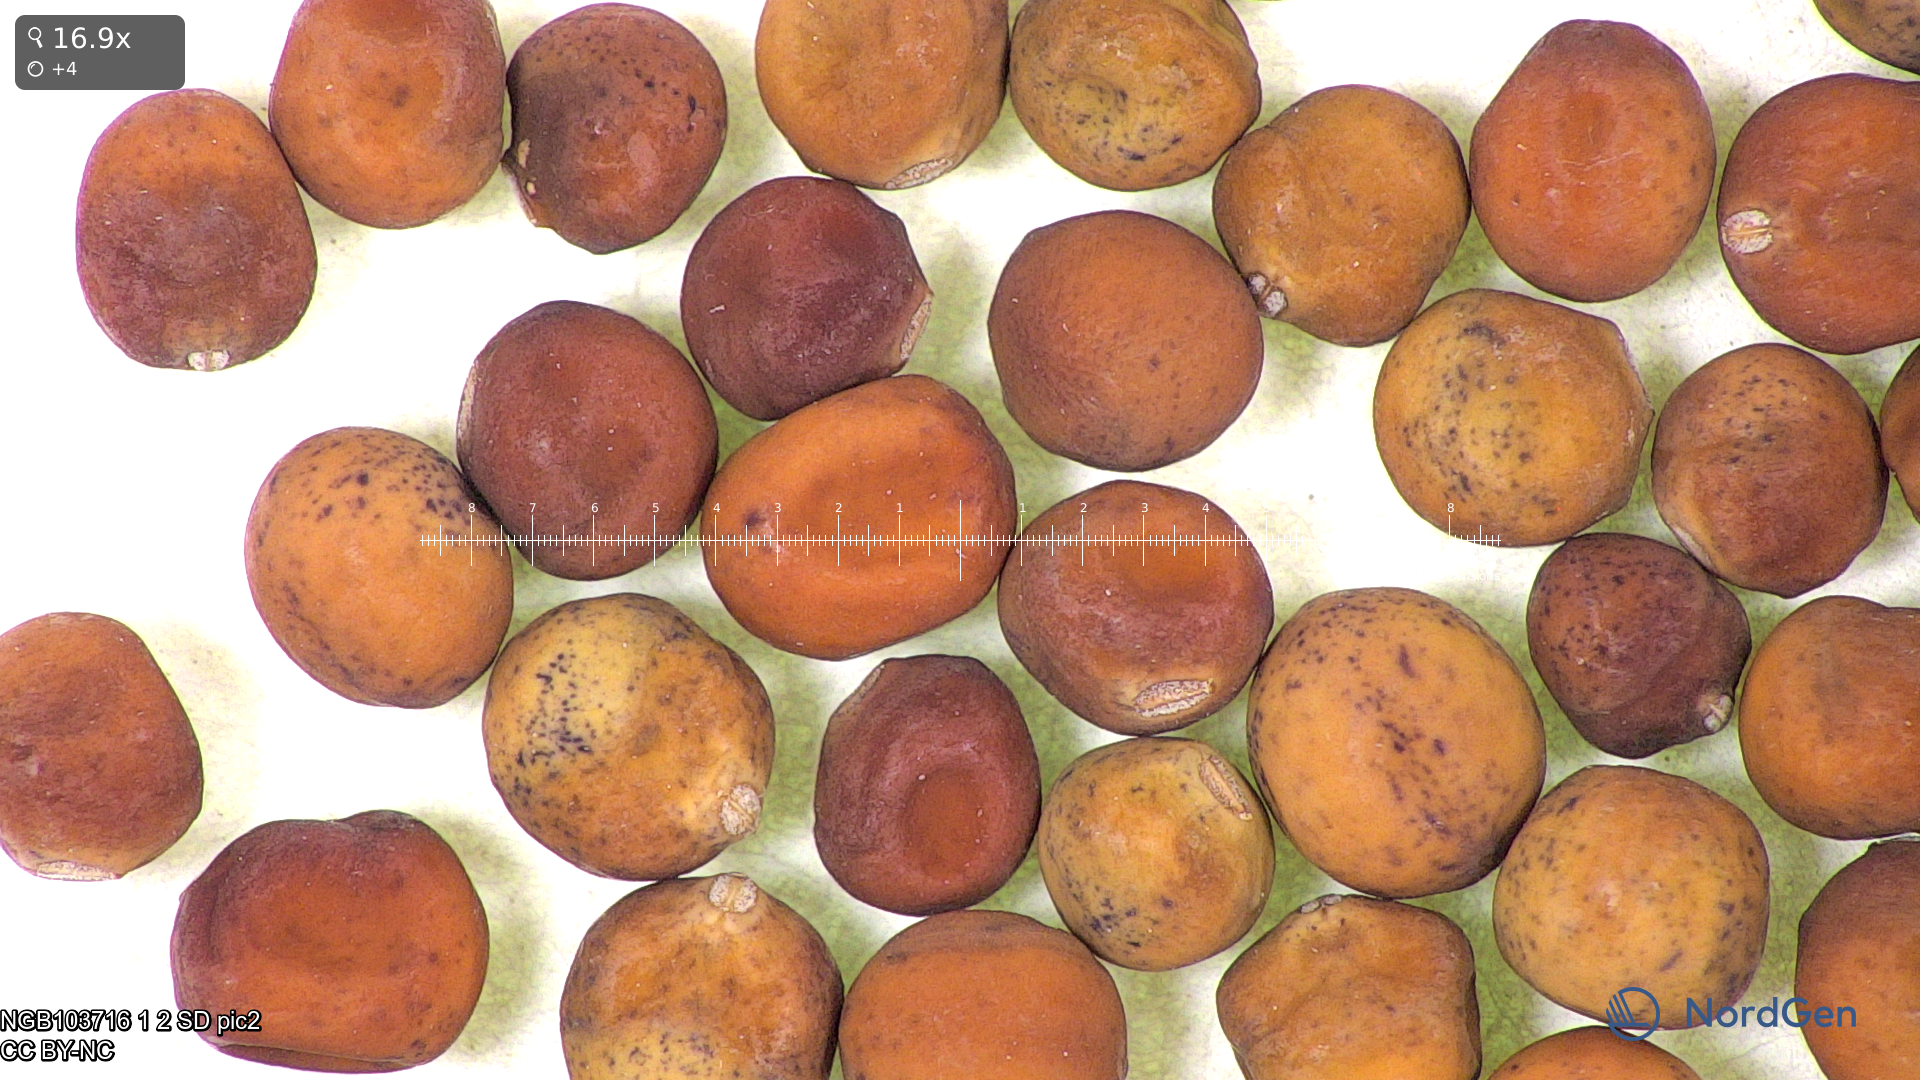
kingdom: Plantae
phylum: Tracheophyta
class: Magnoliopsida
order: Fabales
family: Fabaceae
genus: Lathyrus
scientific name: Lathyrus oleraceus
